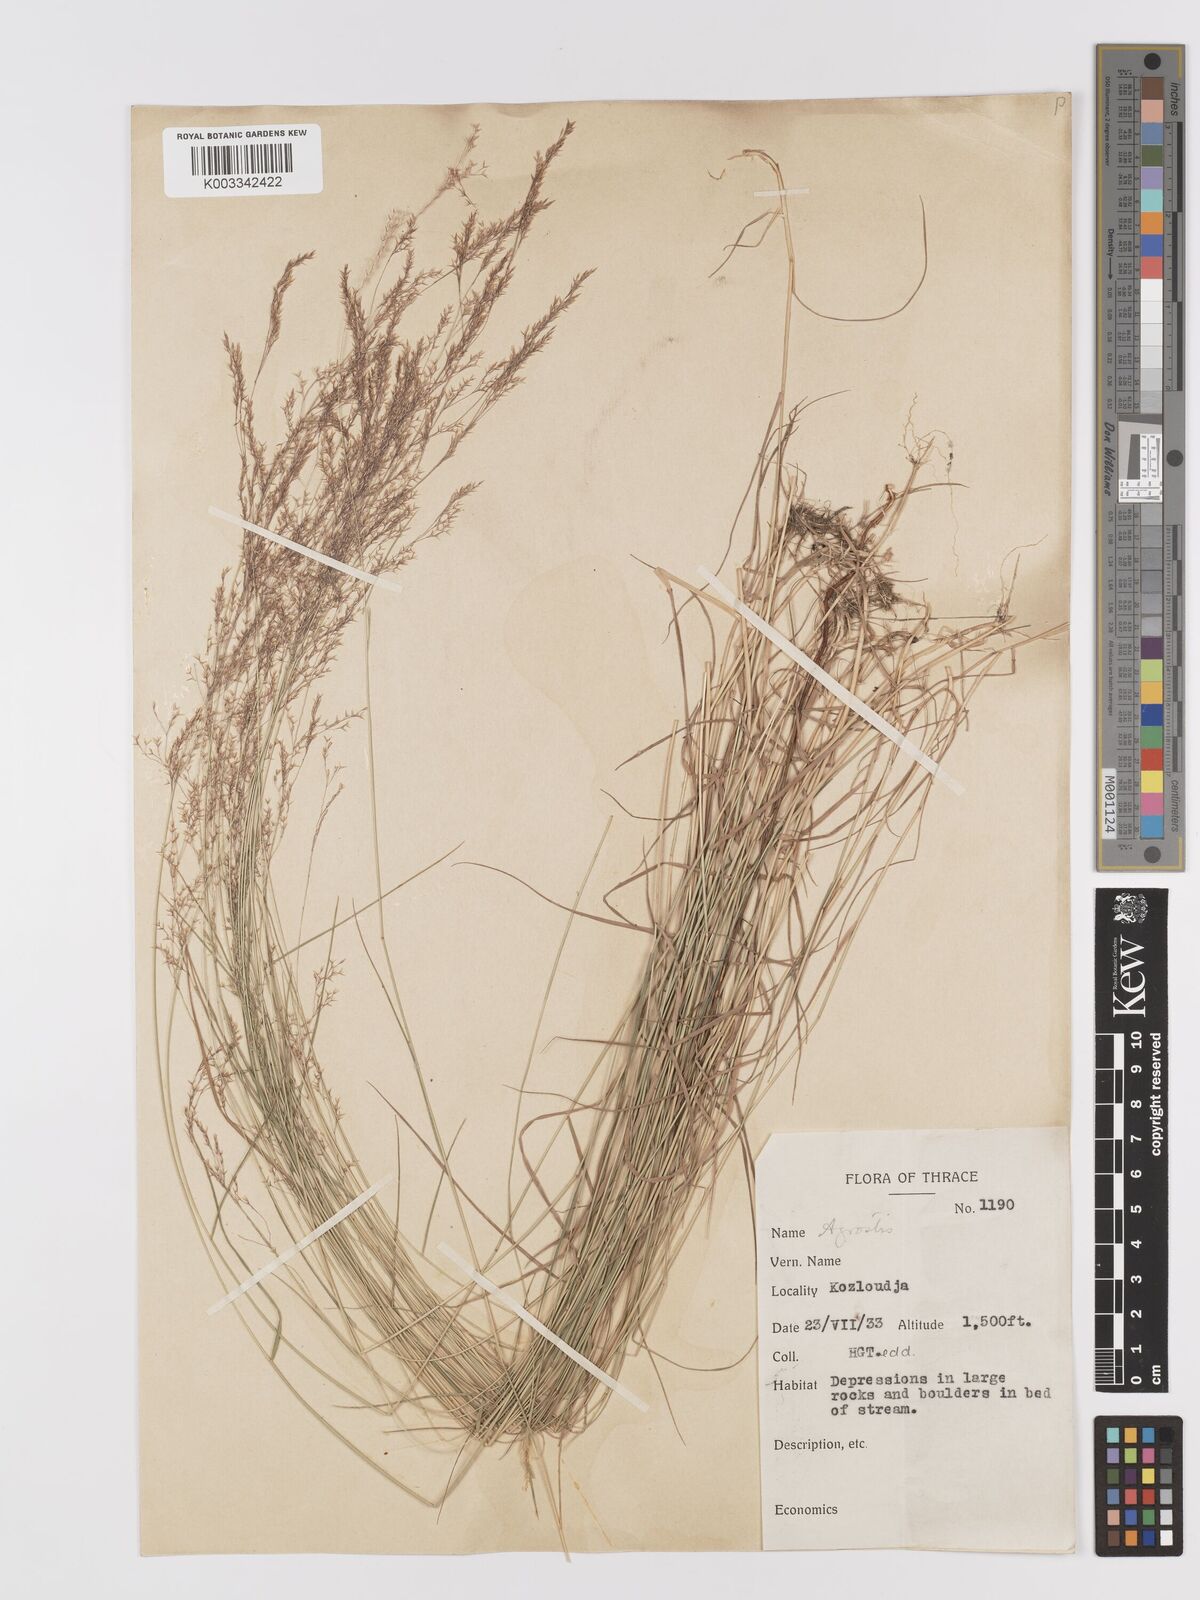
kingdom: Plantae
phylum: Tracheophyta
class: Liliopsida
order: Poales
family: Poaceae
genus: Agrostis
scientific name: Agrostis castellana
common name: Highland bent
